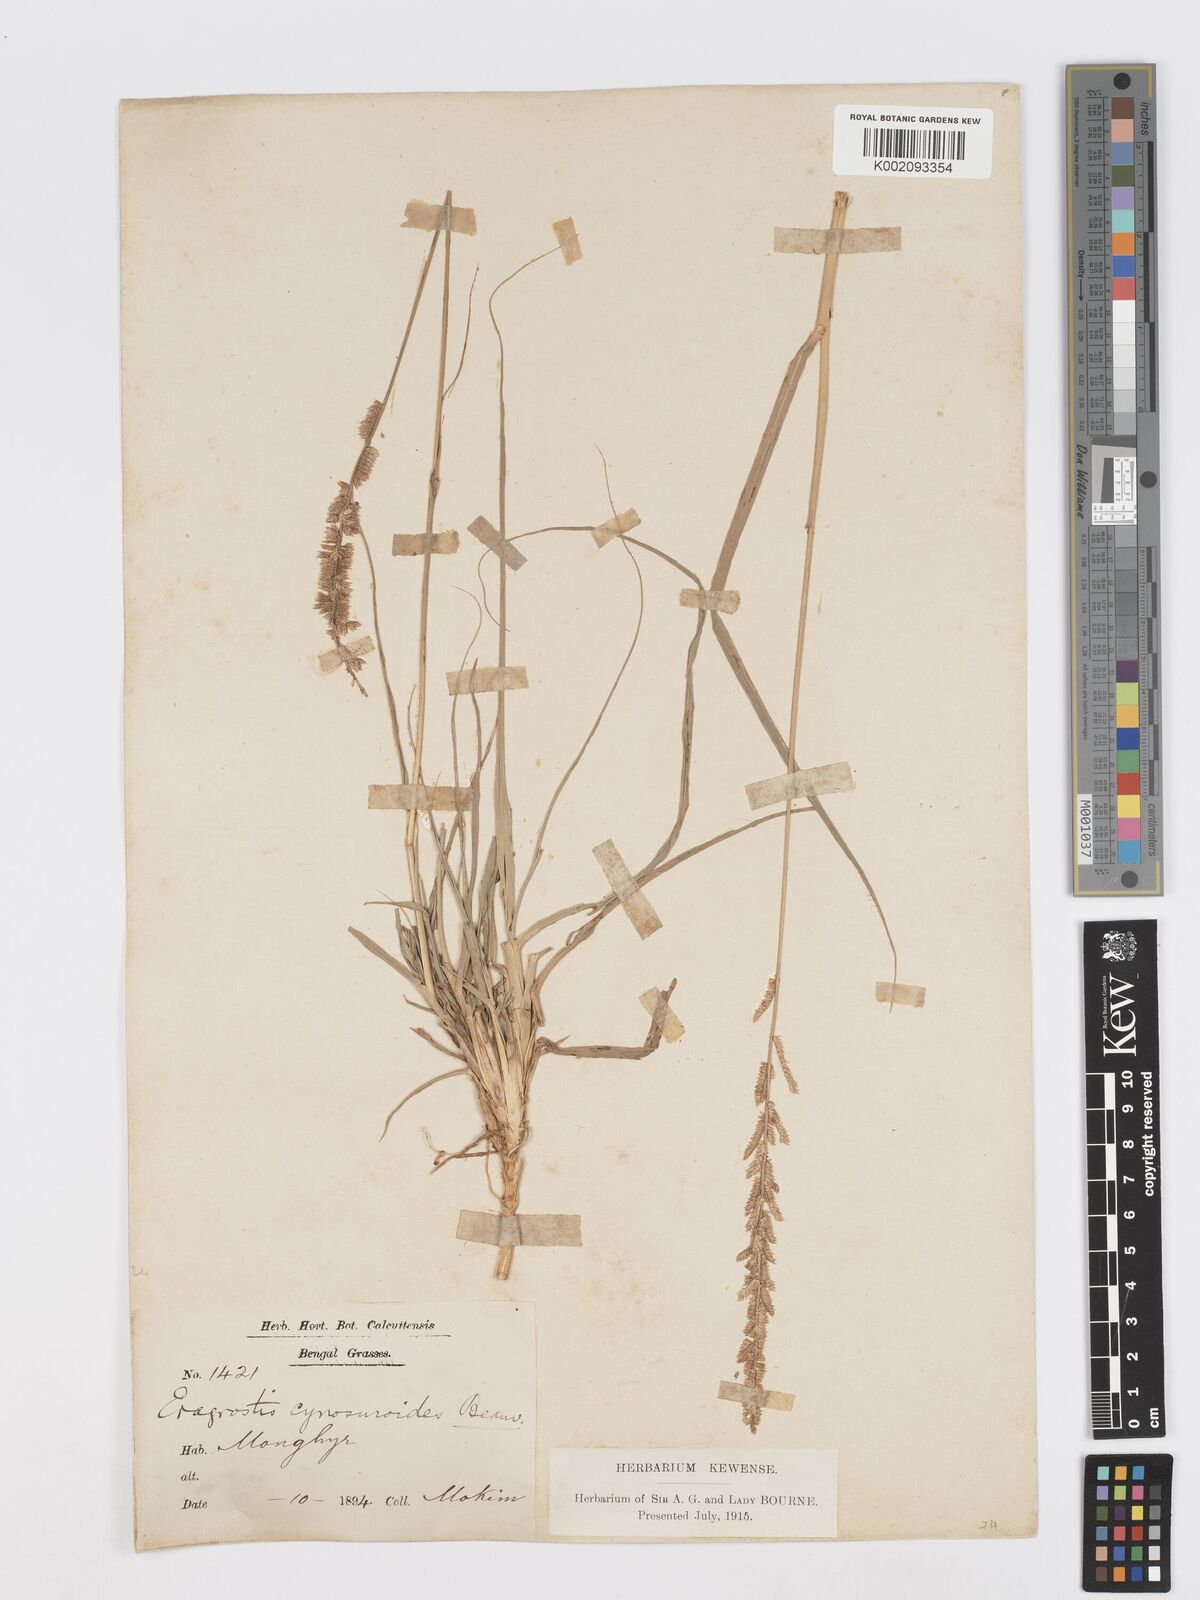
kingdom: Plantae
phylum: Tracheophyta
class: Liliopsida
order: Poales
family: Poaceae
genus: Desmostachya
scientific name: Desmostachya bipinnata
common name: Crowfoot grass
